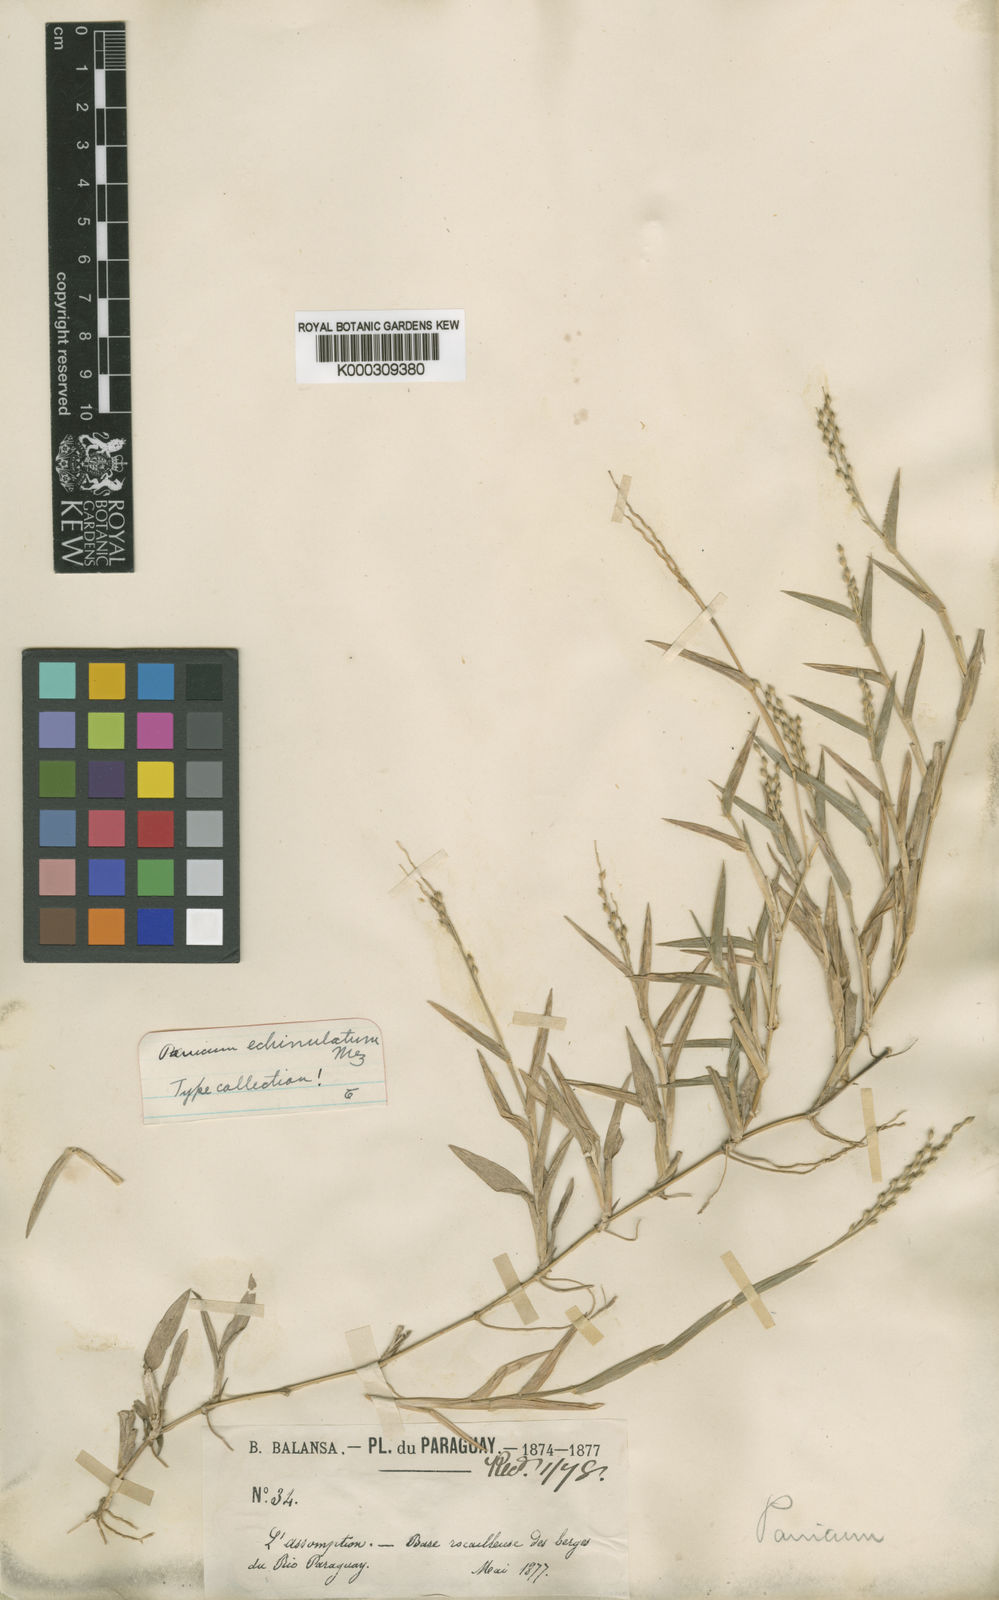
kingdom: Plantae
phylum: Tracheophyta
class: Liliopsida
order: Poales
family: Poaceae
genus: Urochloa
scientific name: Urochloa Brachiaria echinulata
